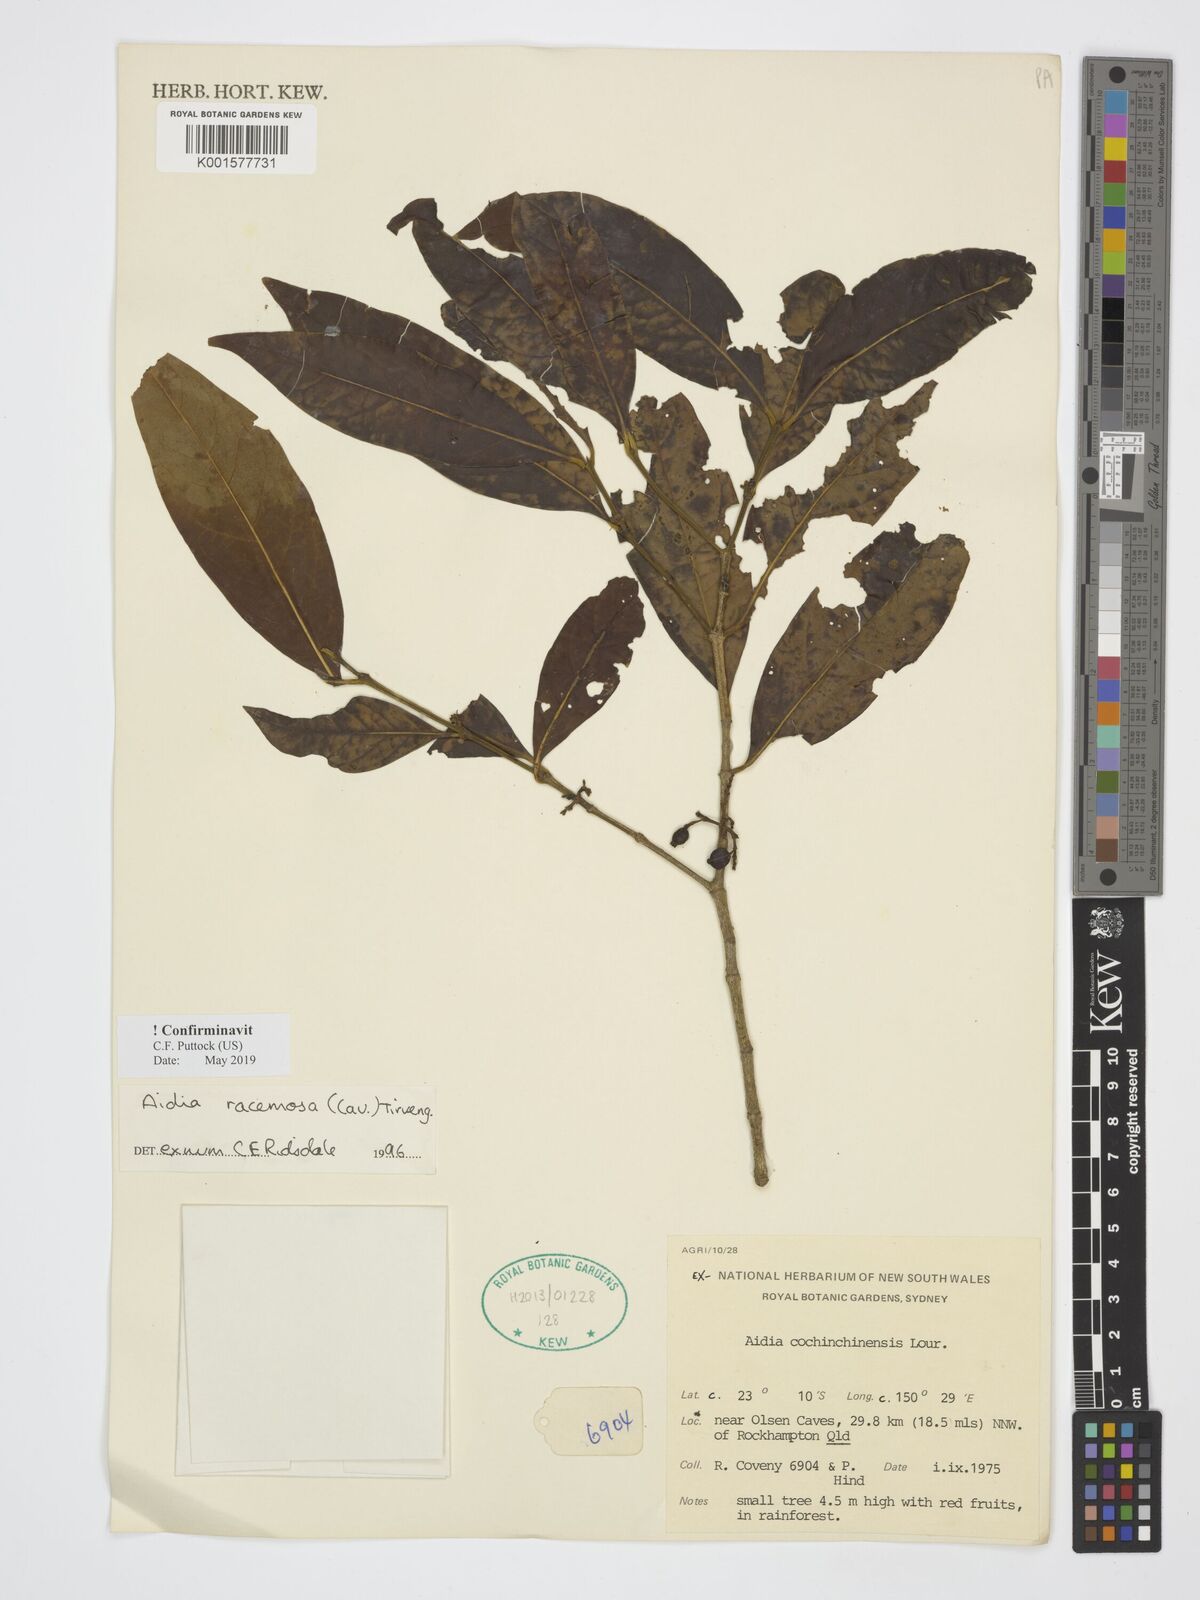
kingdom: Plantae
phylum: Tracheophyta
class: Magnoliopsida
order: Gentianales
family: Rubiaceae
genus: Aidia
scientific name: Aidia racemosa
